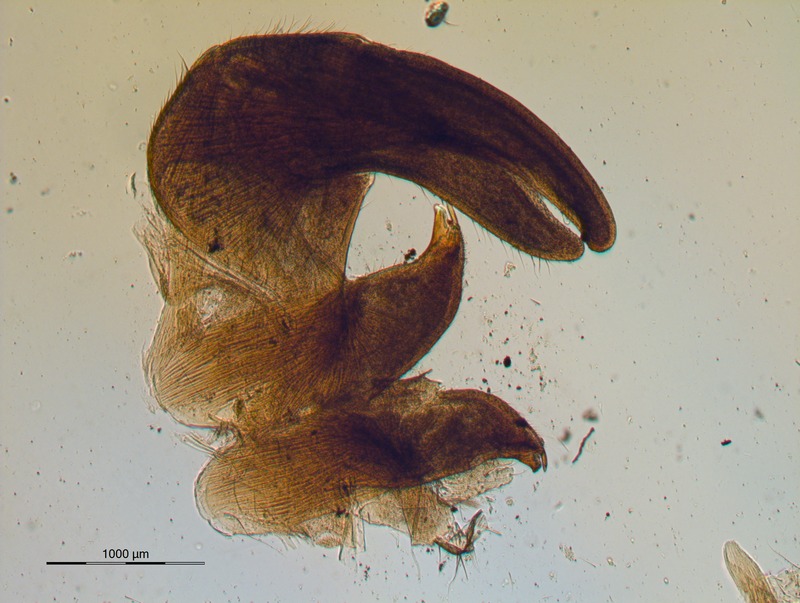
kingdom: Animalia
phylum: Arthropoda
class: Diplopoda
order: Sphaerotheriida
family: Arthrosphaeridae
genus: Arthrosphaera
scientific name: Arthrosphaera indica
